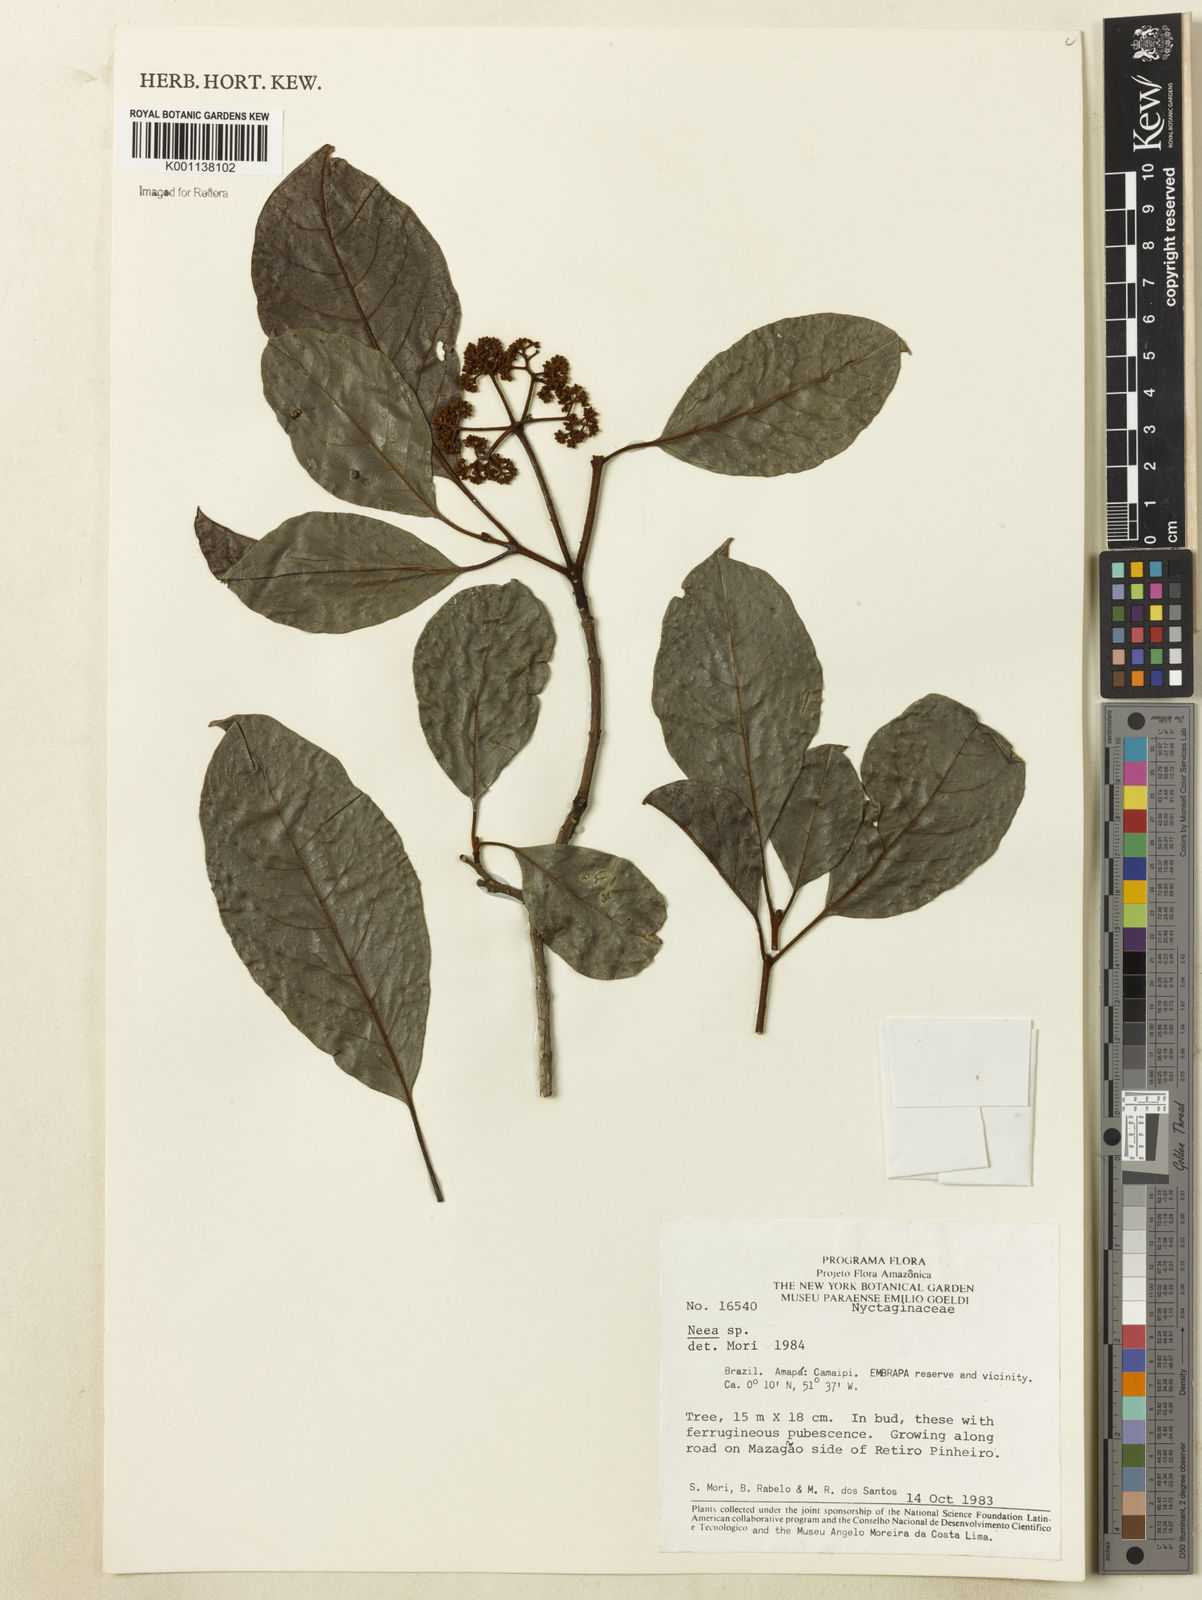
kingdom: Plantae
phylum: Tracheophyta
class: Magnoliopsida
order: Caryophyllales
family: Nyctaginaceae
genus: Neea
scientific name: Neea
